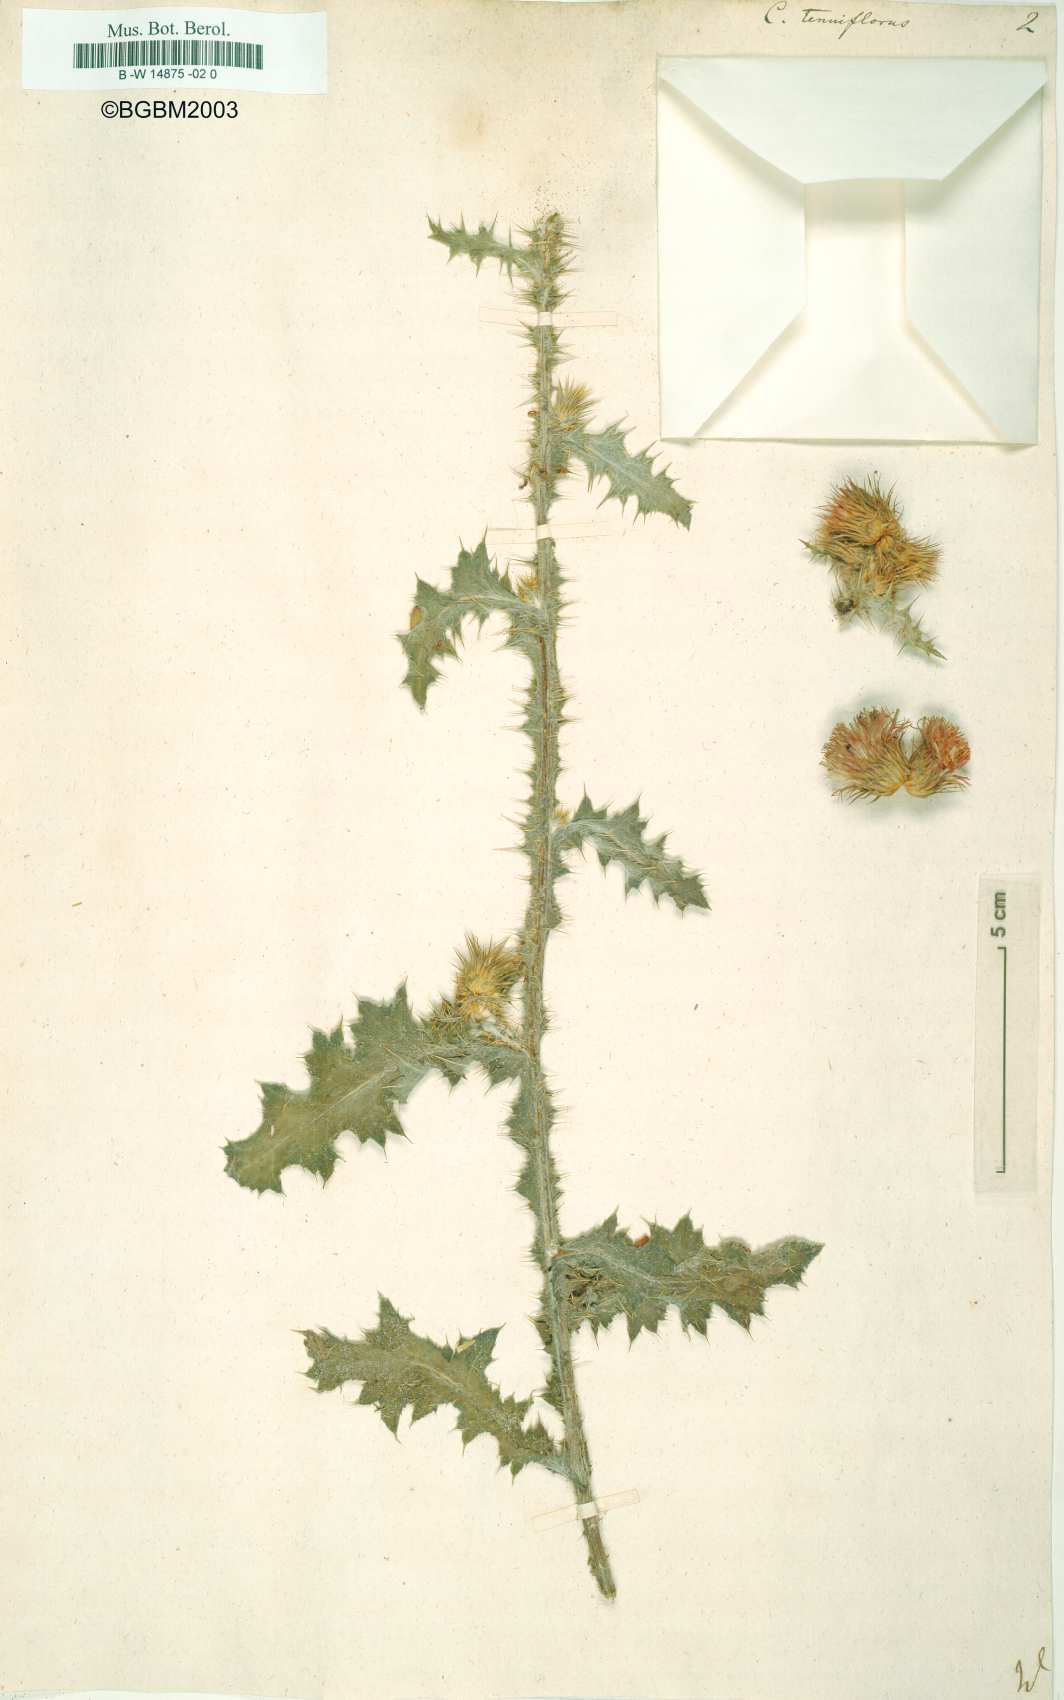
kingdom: Plantae
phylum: Tracheophyta
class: Magnoliopsida
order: Asterales
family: Asteraceae
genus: Carduus
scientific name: Carduus tenuiflorus
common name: Slender thistle
